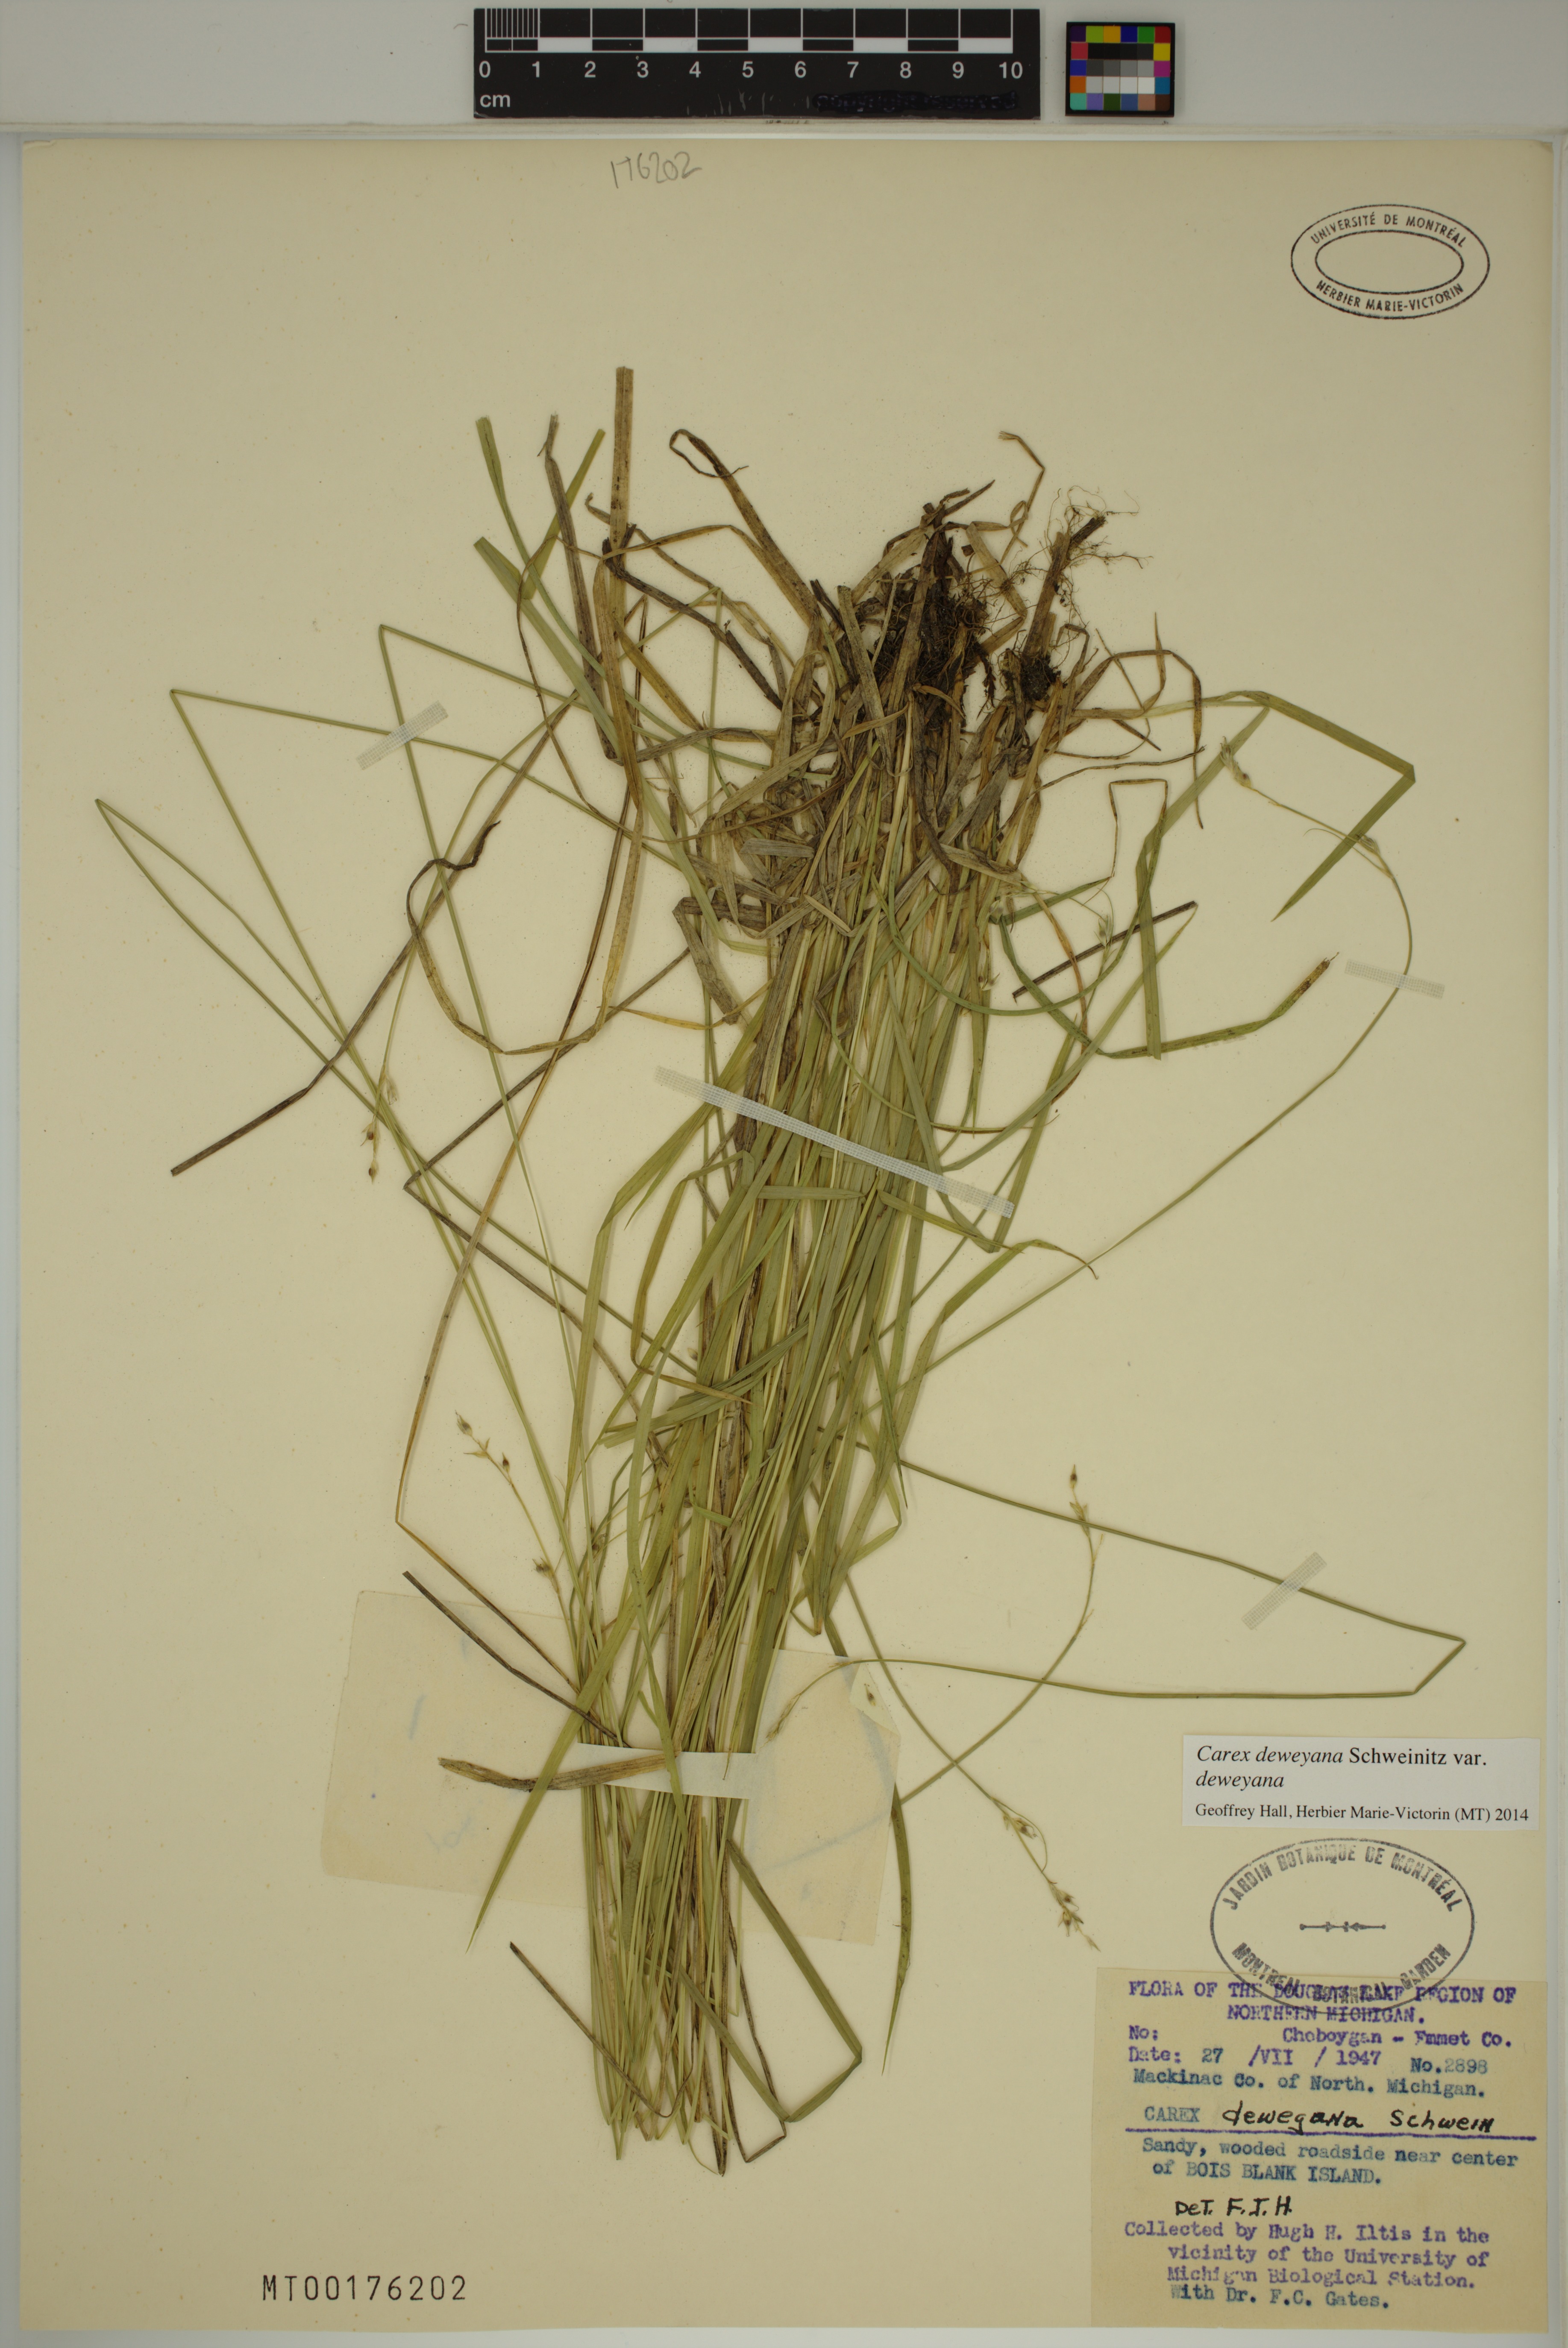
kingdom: Plantae
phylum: Tracheophyta
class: Liliopsida
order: Poales
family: Cyperaceae
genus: Carex
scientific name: Carex deweyana
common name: Dewey's sedge
